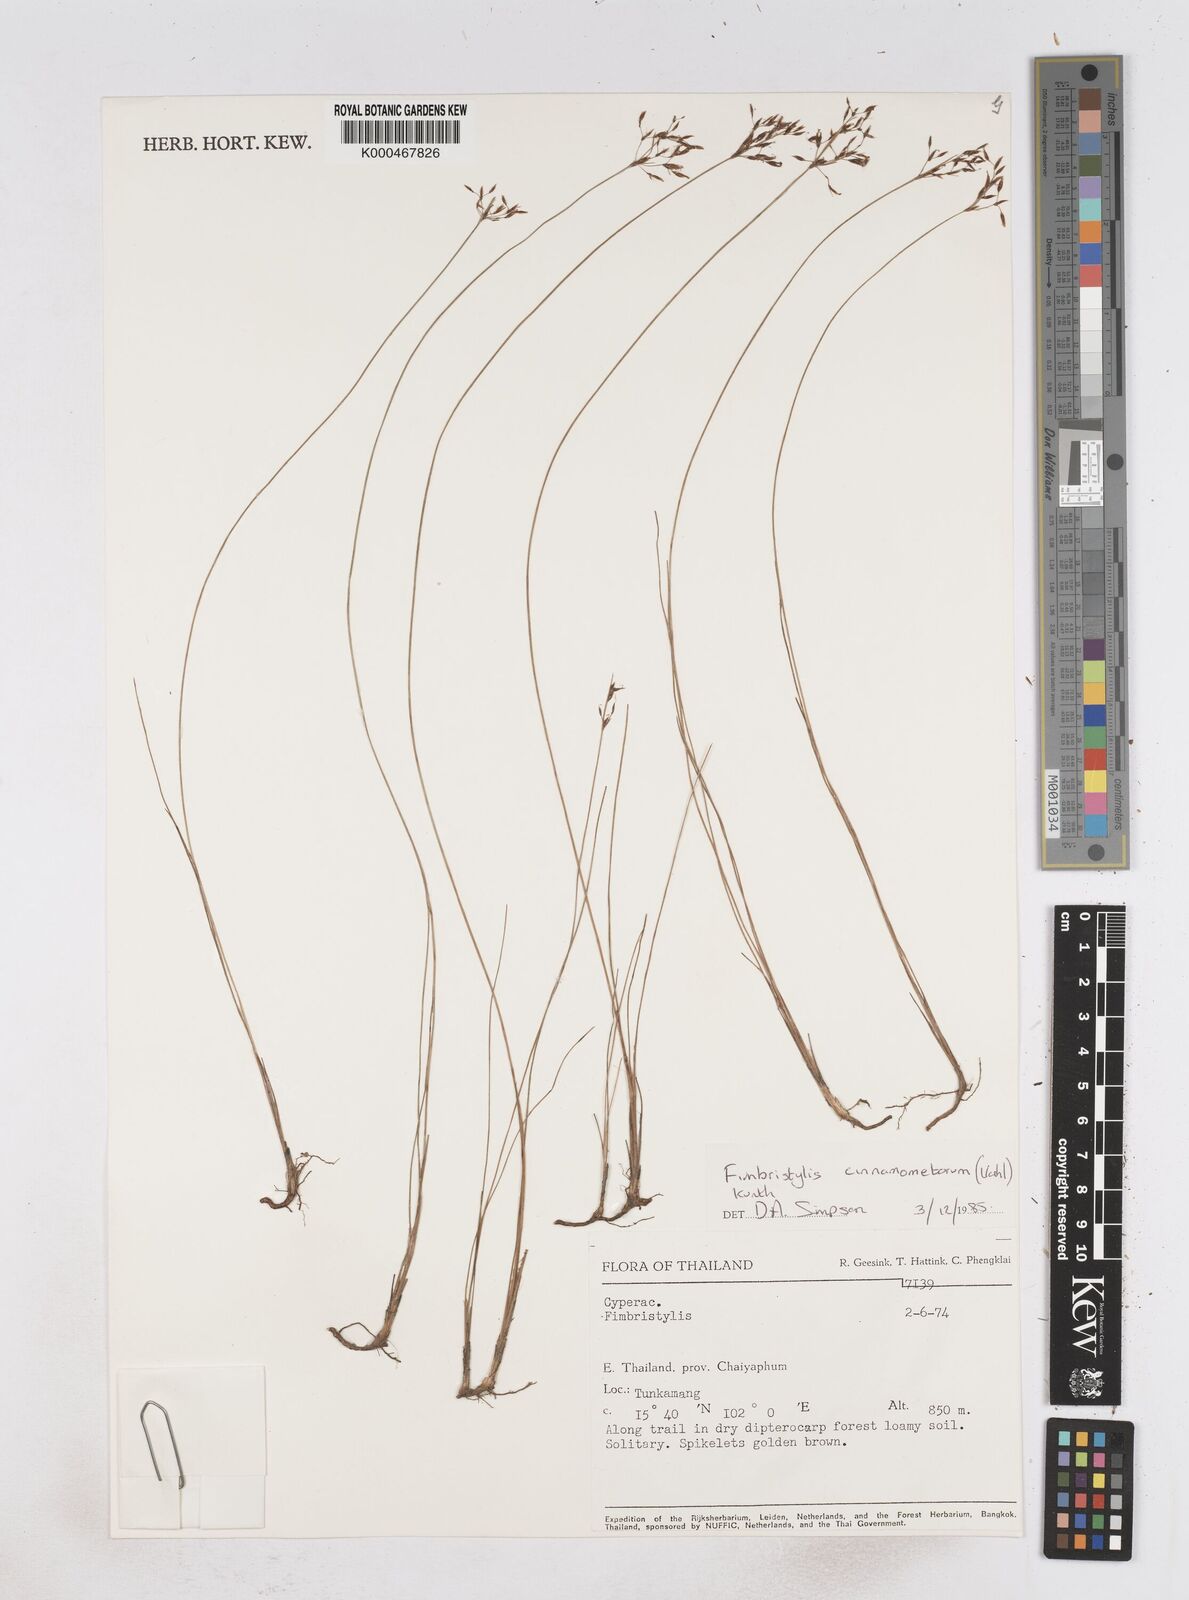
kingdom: Plantae
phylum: Tracheophyta
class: Liliopsida
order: Poales
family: Cyperaceae
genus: Fimbristylis
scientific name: Fimbristylis cinnamometorum
